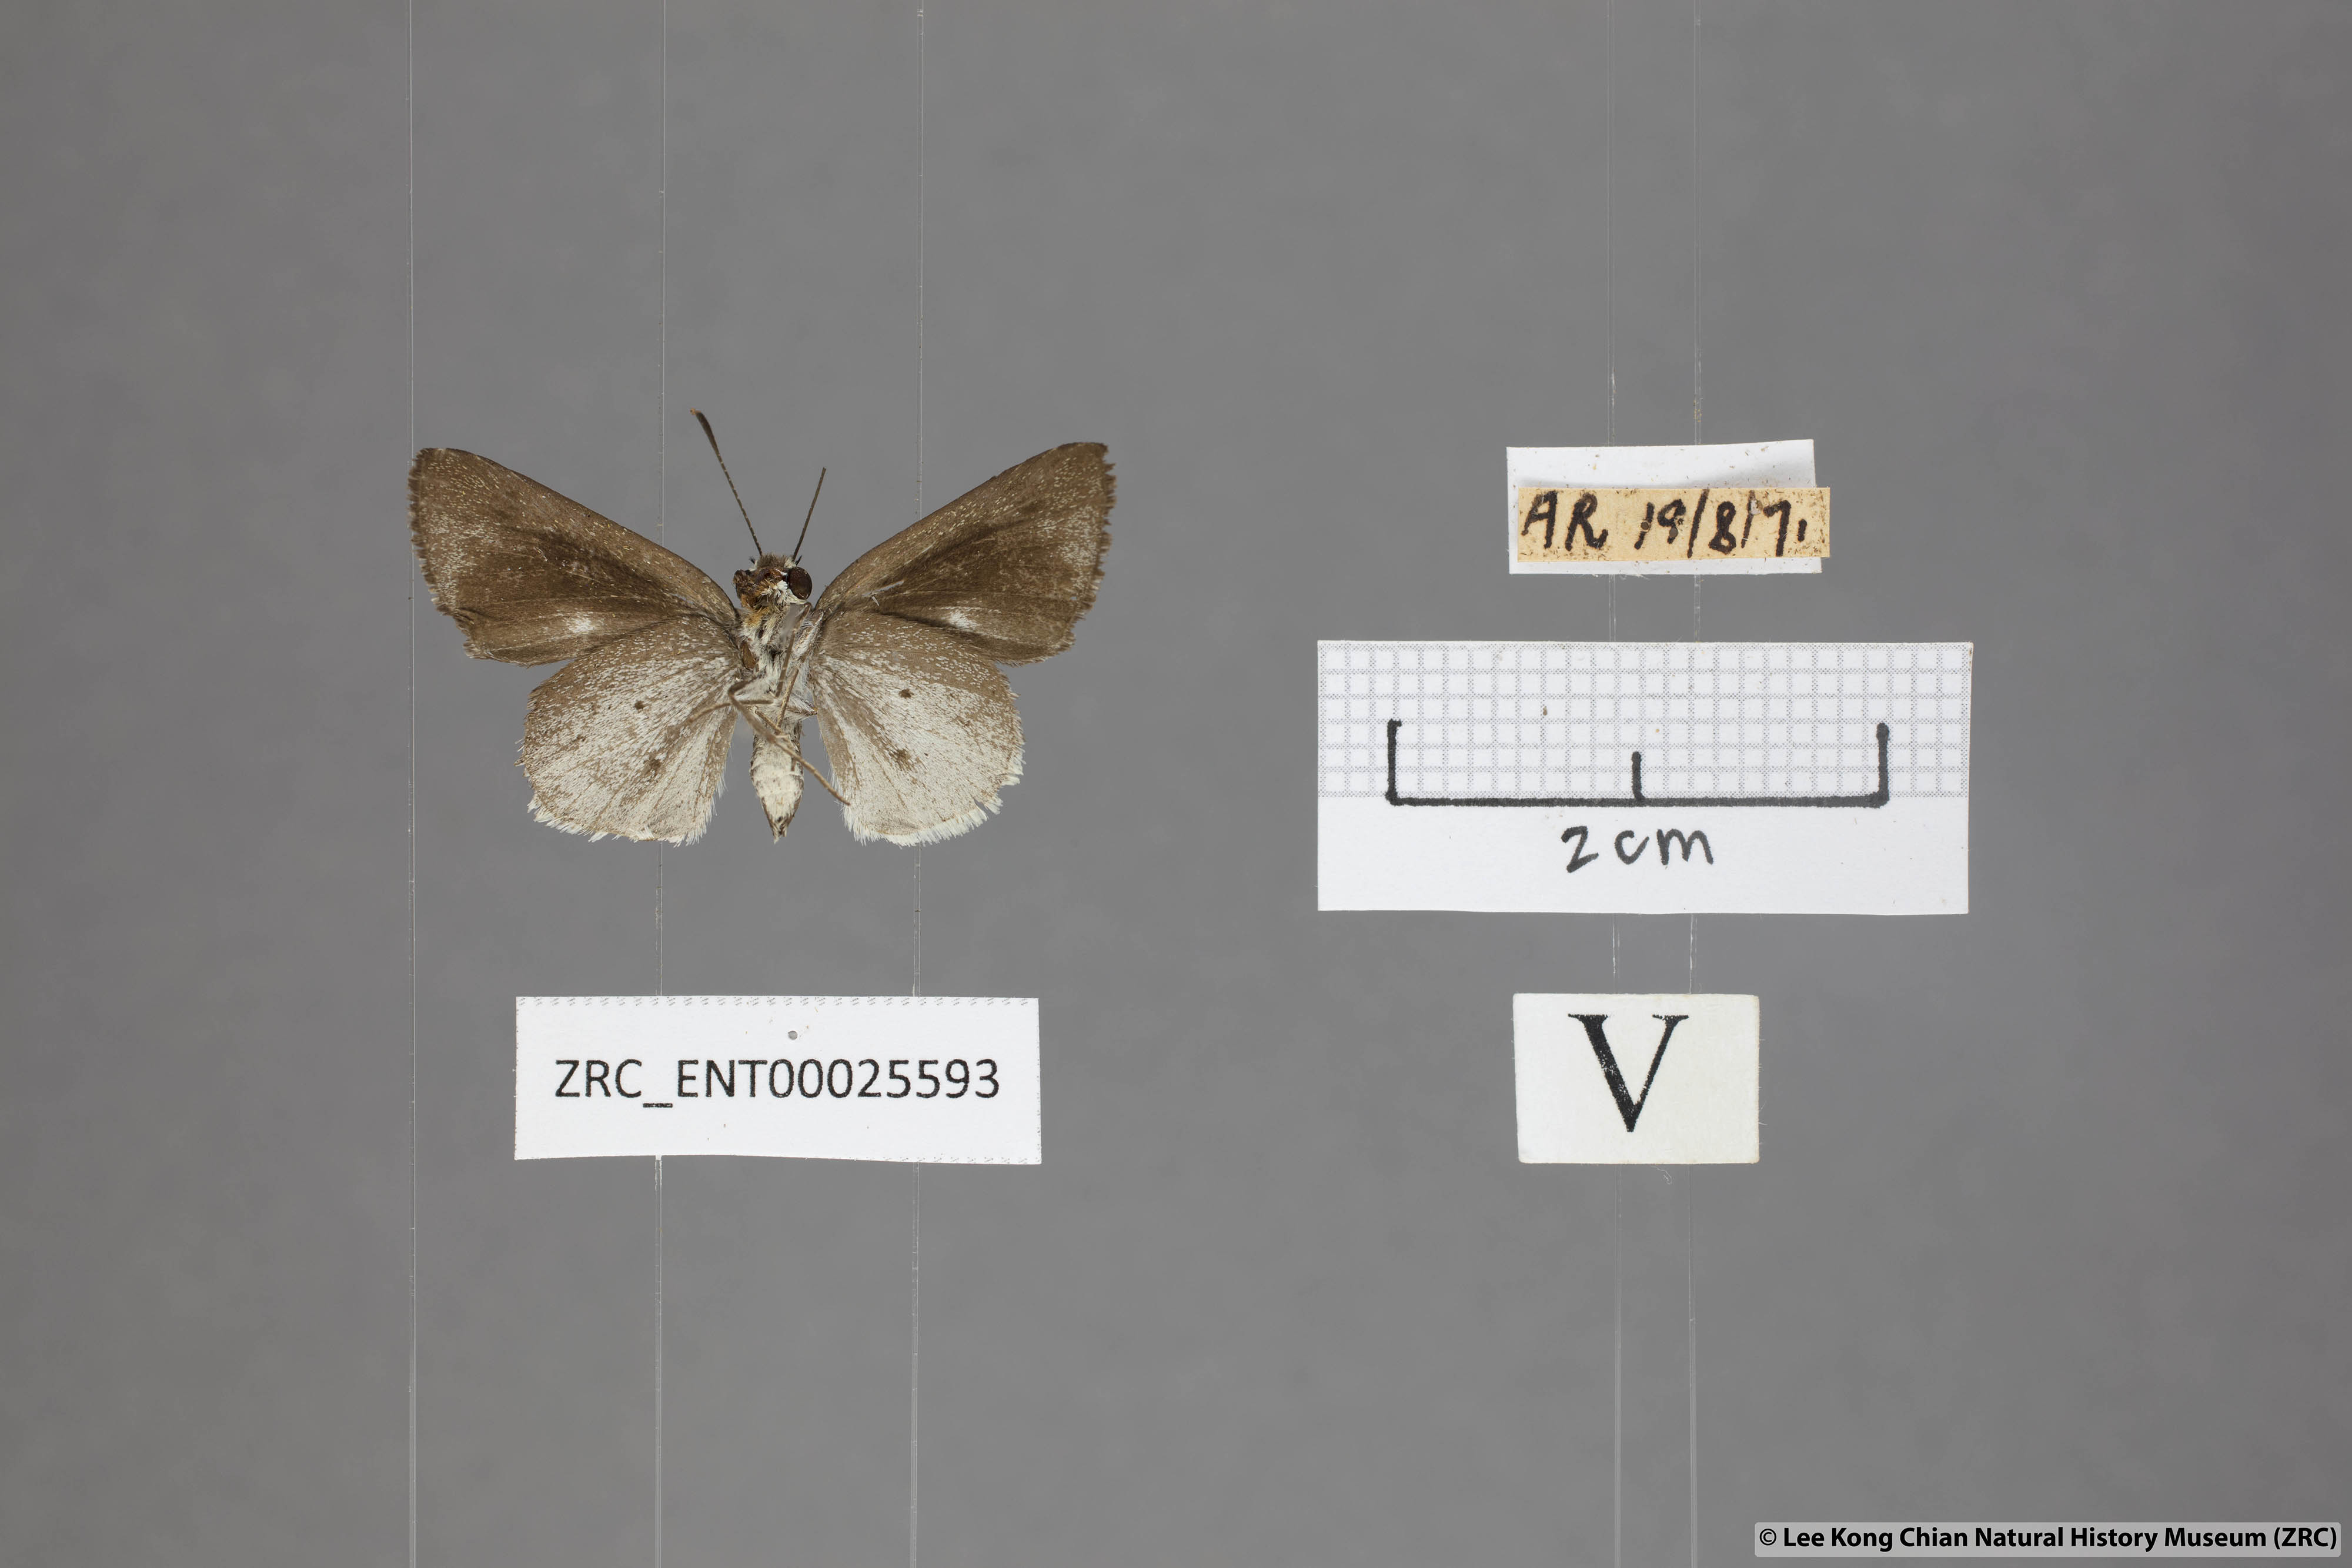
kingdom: Animalia
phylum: Arthropoda
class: Insecta
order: Lepidoptera
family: Hesperiidae
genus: Suastus
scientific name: Suastus minuta
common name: Small palm bob
